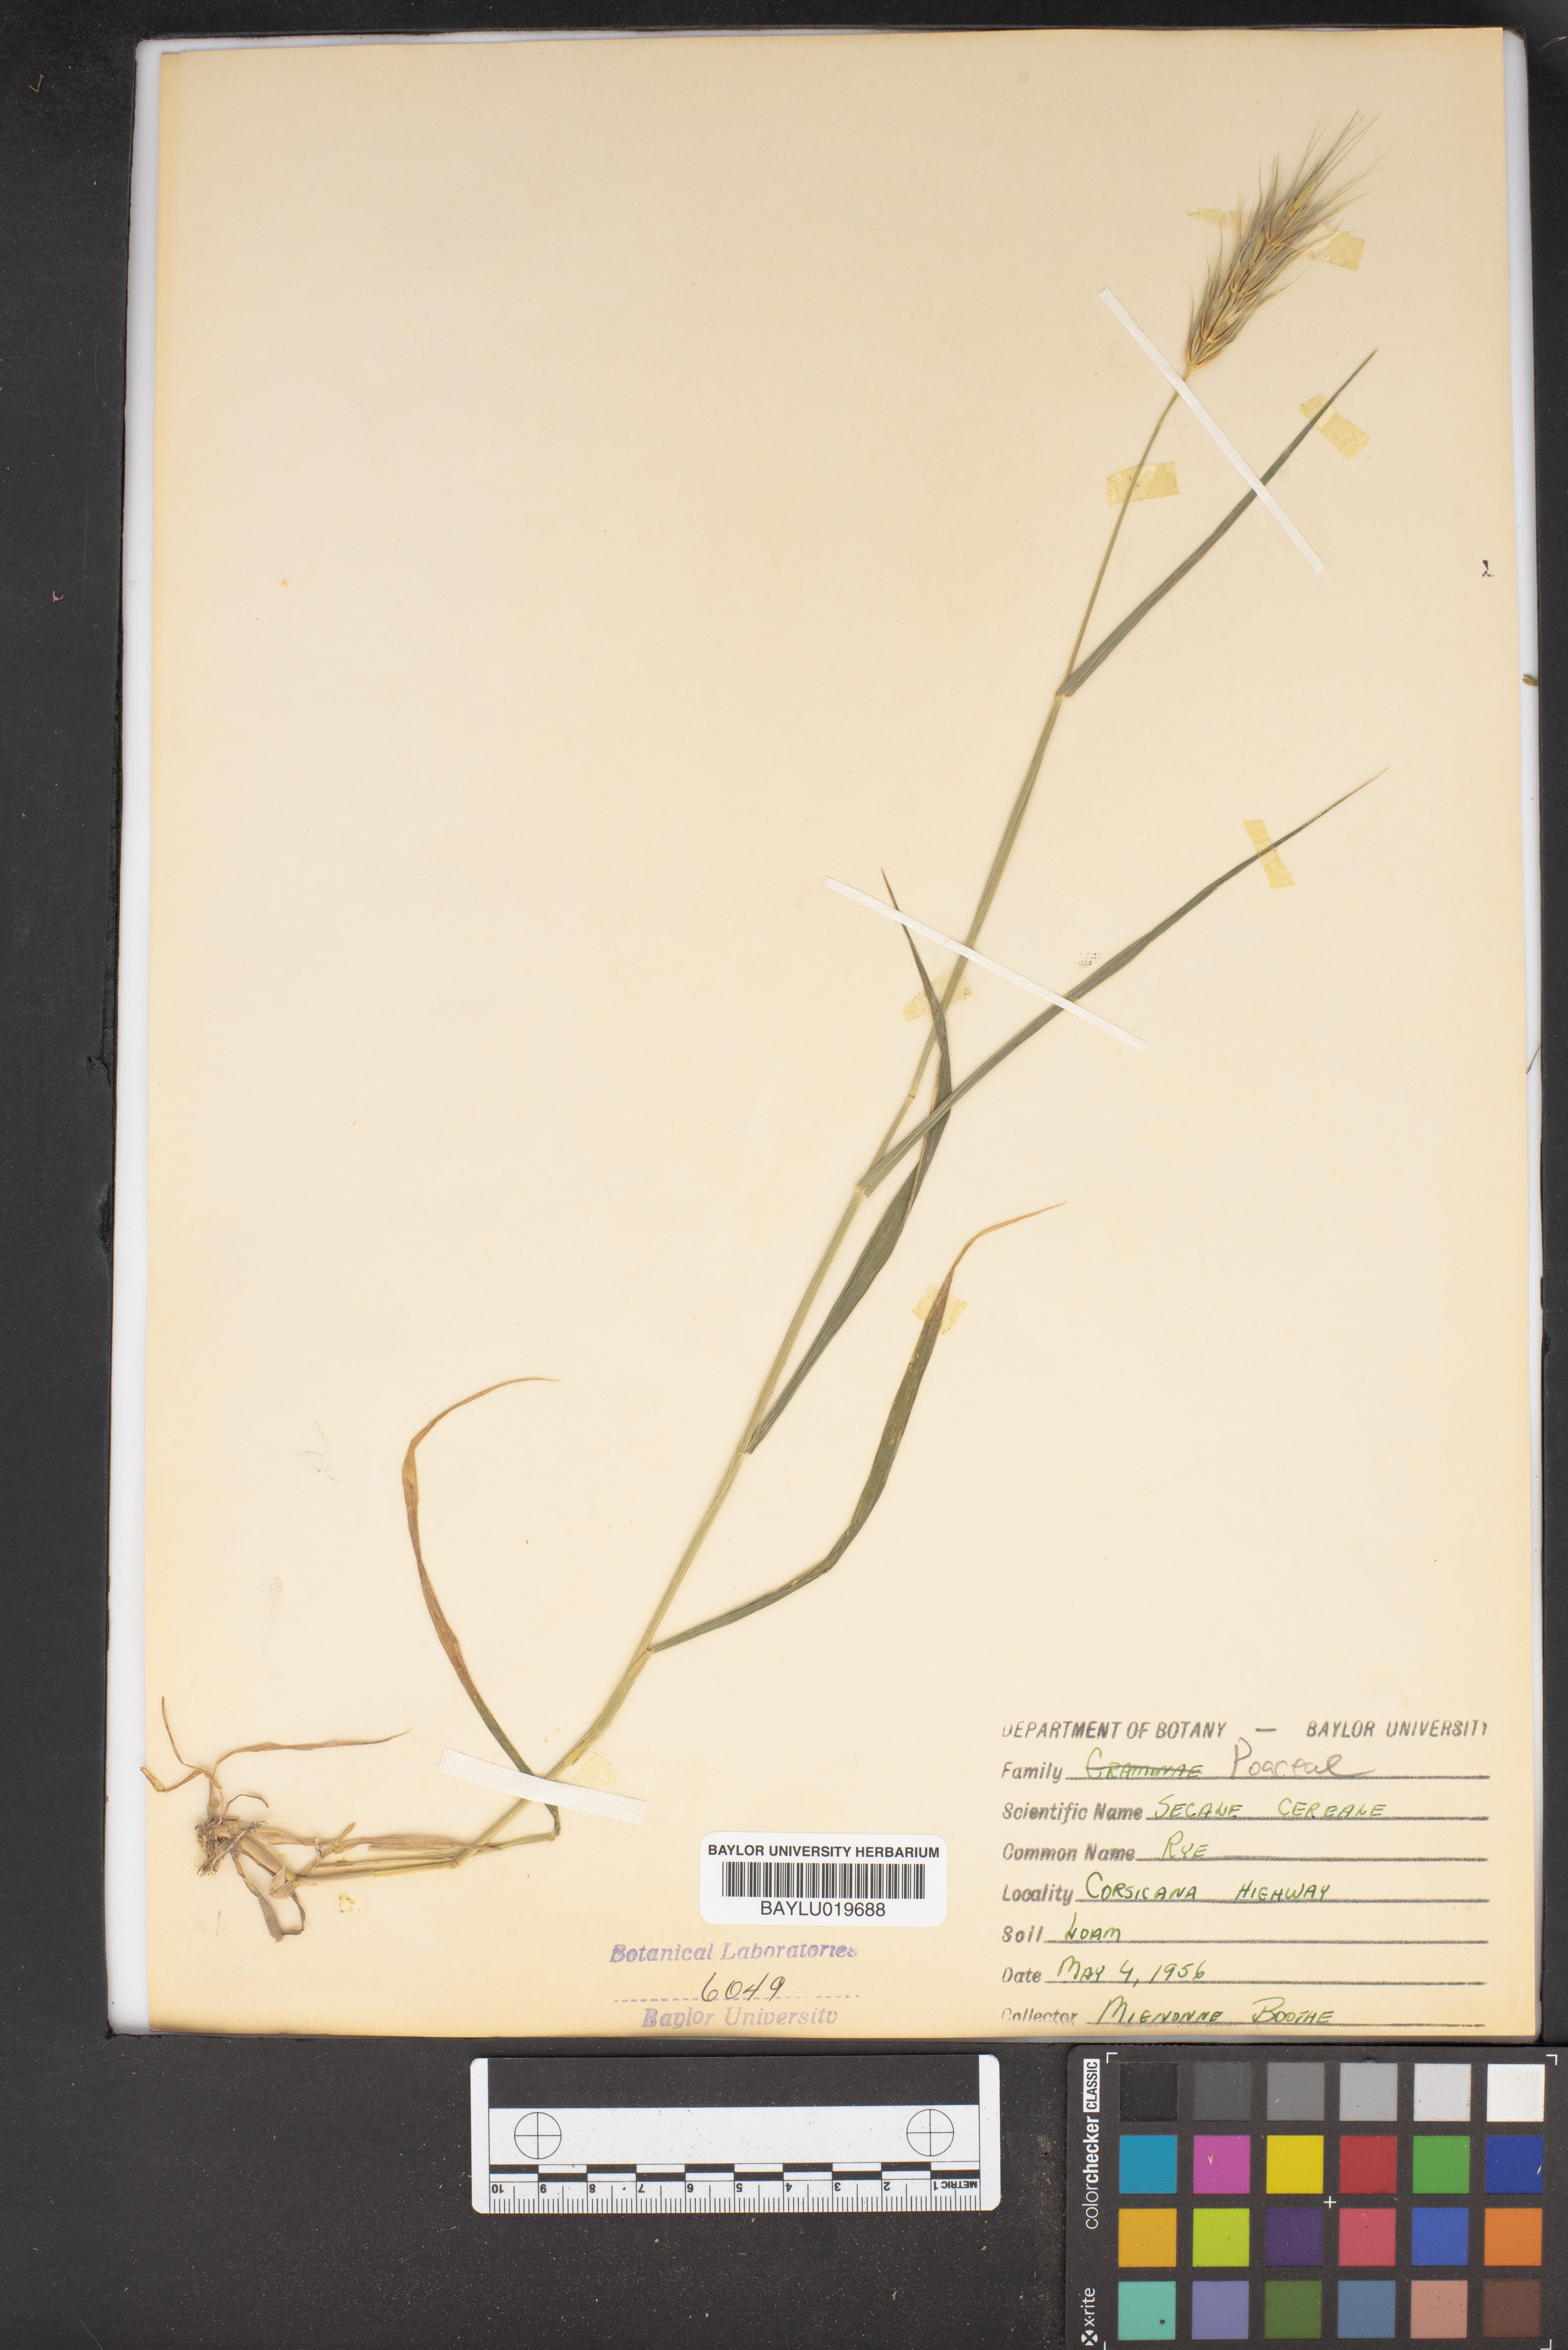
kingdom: Plantae
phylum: Tracheophyta
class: Liliopsida
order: Poales
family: Poaceae
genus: Secale
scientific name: Secale cereale
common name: Rye
